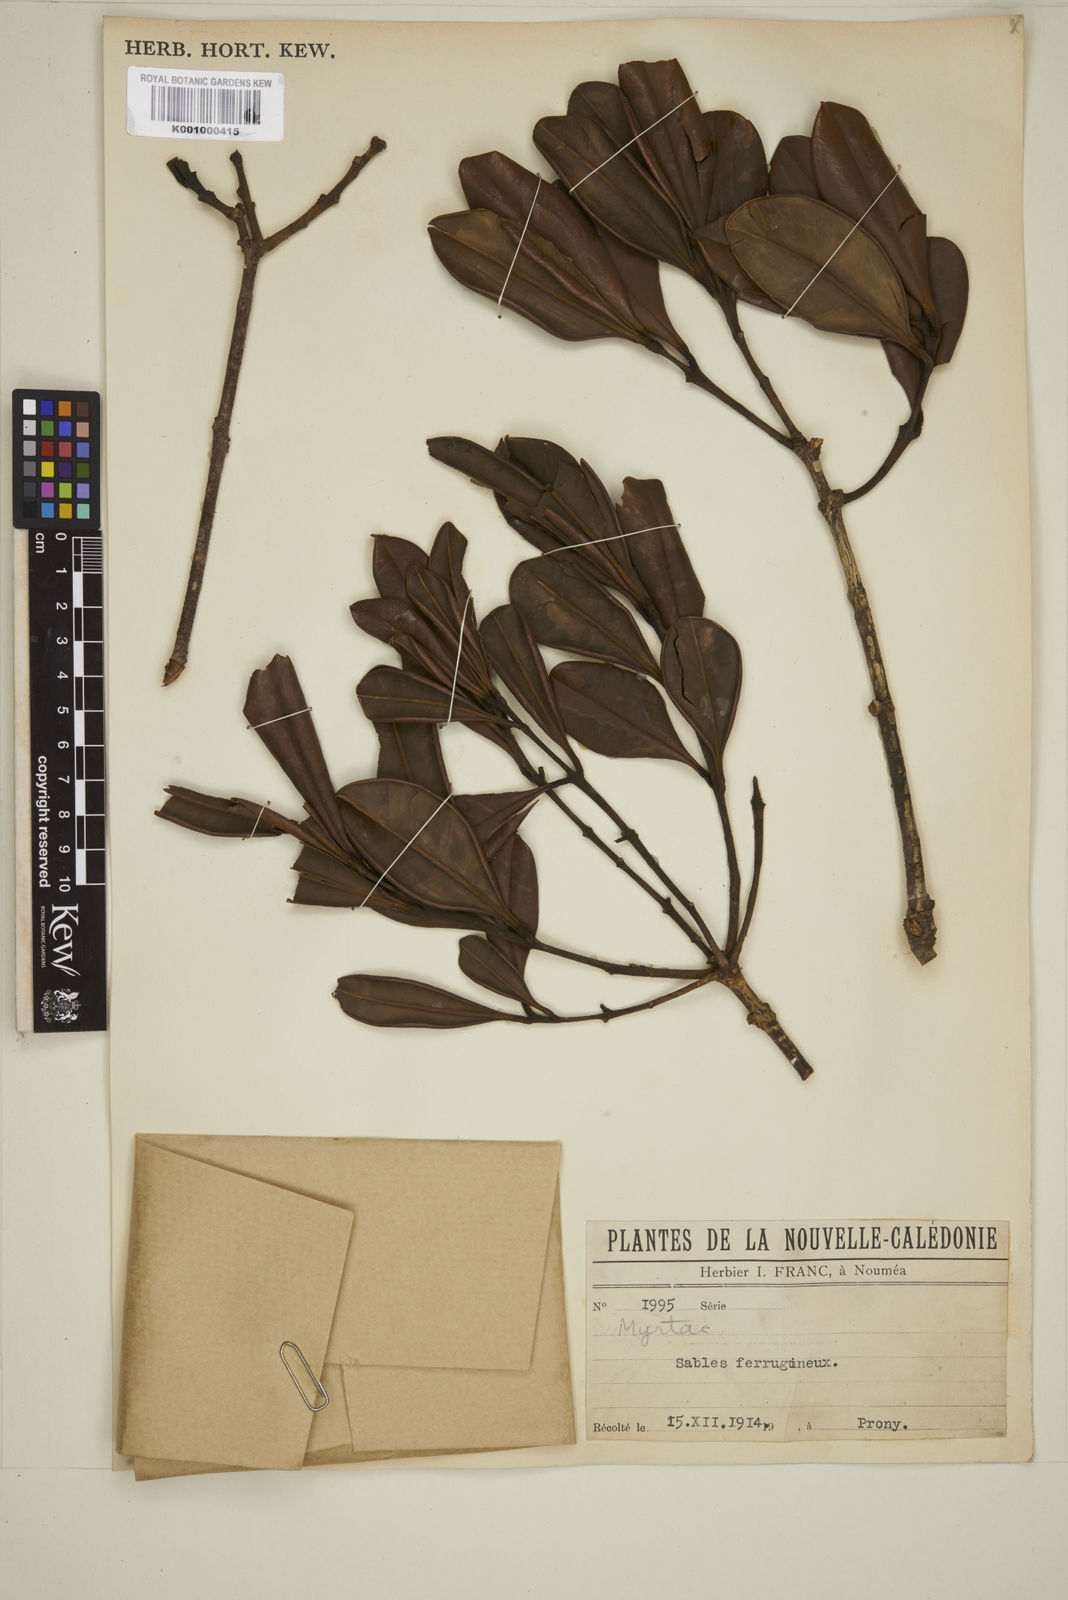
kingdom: Plantae
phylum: Tracheophyta
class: Magnoliopsida
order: Myrtales
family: Myrtaceae
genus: Eugenia
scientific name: Eugenia
